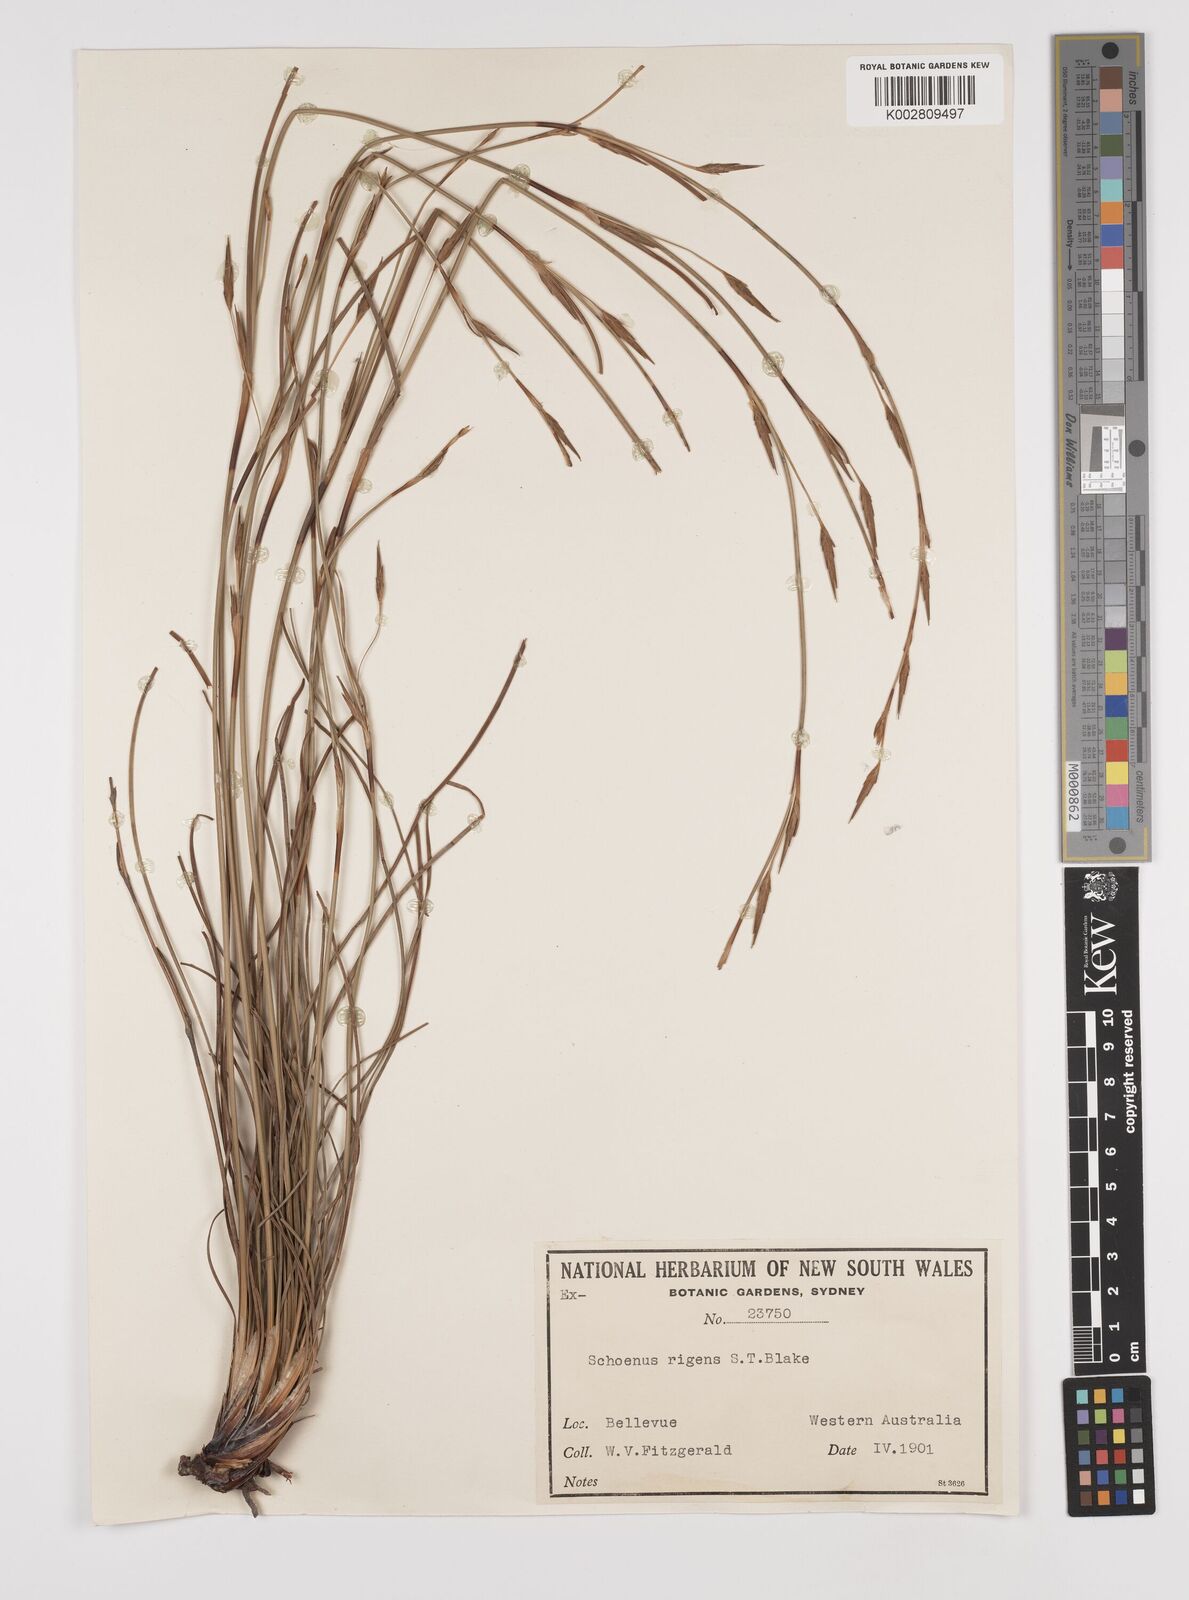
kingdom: Plantae
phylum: Tracheophyta
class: Liliopsida
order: Poales
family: Cyperaceae
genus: Schoenus
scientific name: Schoenus rigens
